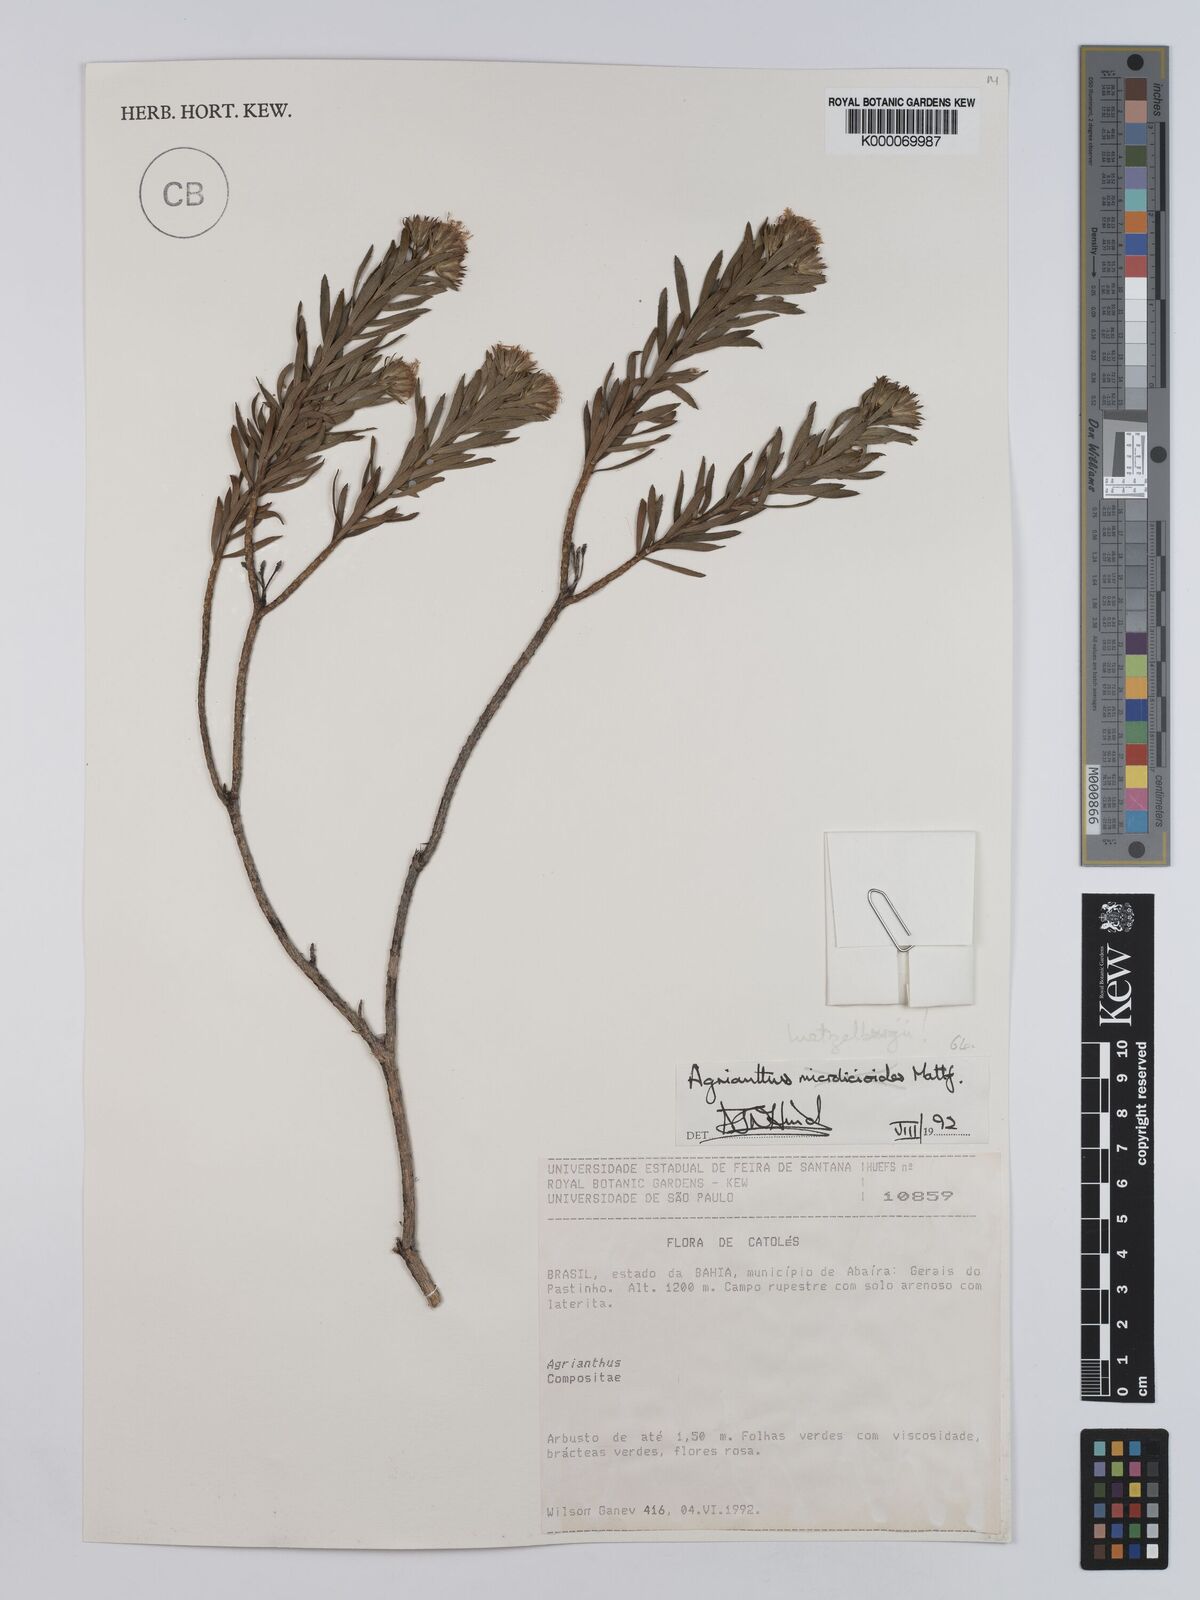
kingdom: Plantae
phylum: Tracheophyta
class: Magnoliopsida
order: Asterales
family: Asteraceae
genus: Agrianthus
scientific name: Agrianthus
